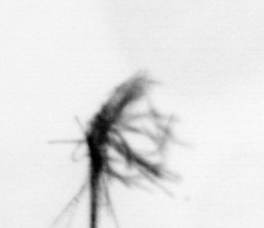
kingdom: Bacteria
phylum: Cyanobacteria
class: Cyanobacteriia
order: Cyanobacteriales
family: Microcoleaceae
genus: Trichodesmium
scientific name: Trichodesmium
